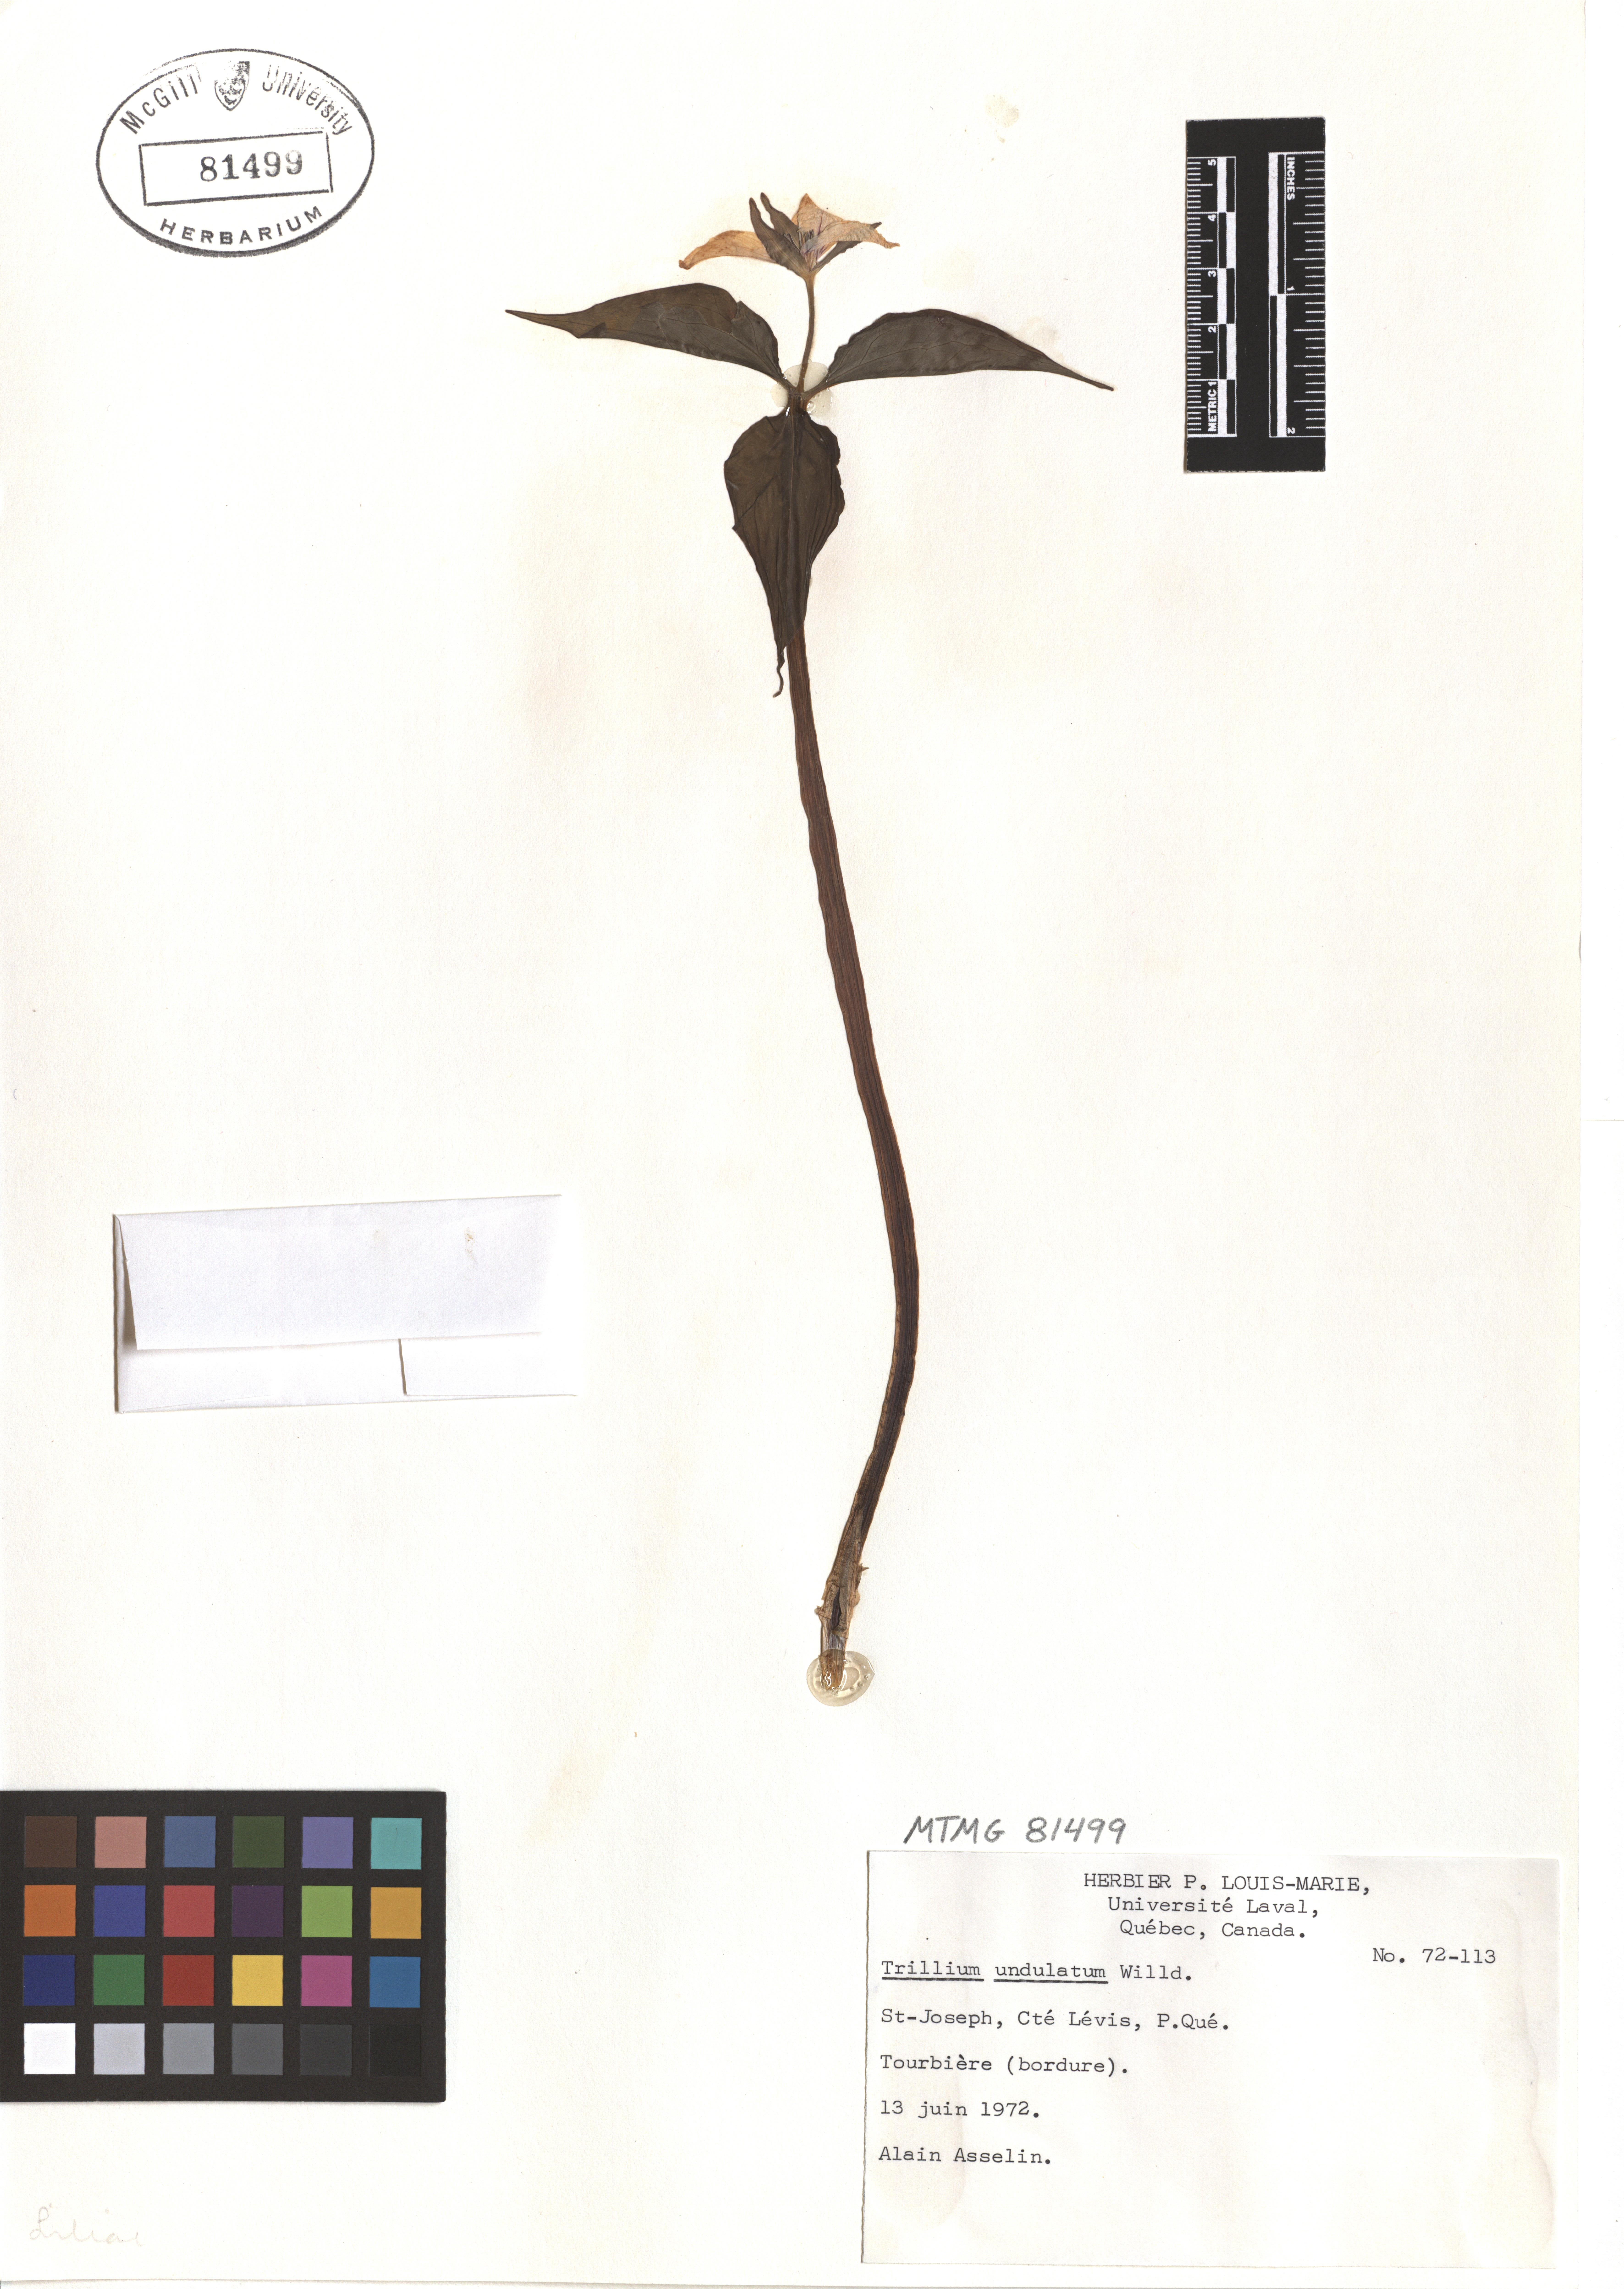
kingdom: Plantae
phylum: Tracheophyta
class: Liliopsida
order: Liliales
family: Melanthiaceae
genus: Trillium
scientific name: Trillium undulatum
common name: Paint trillium
